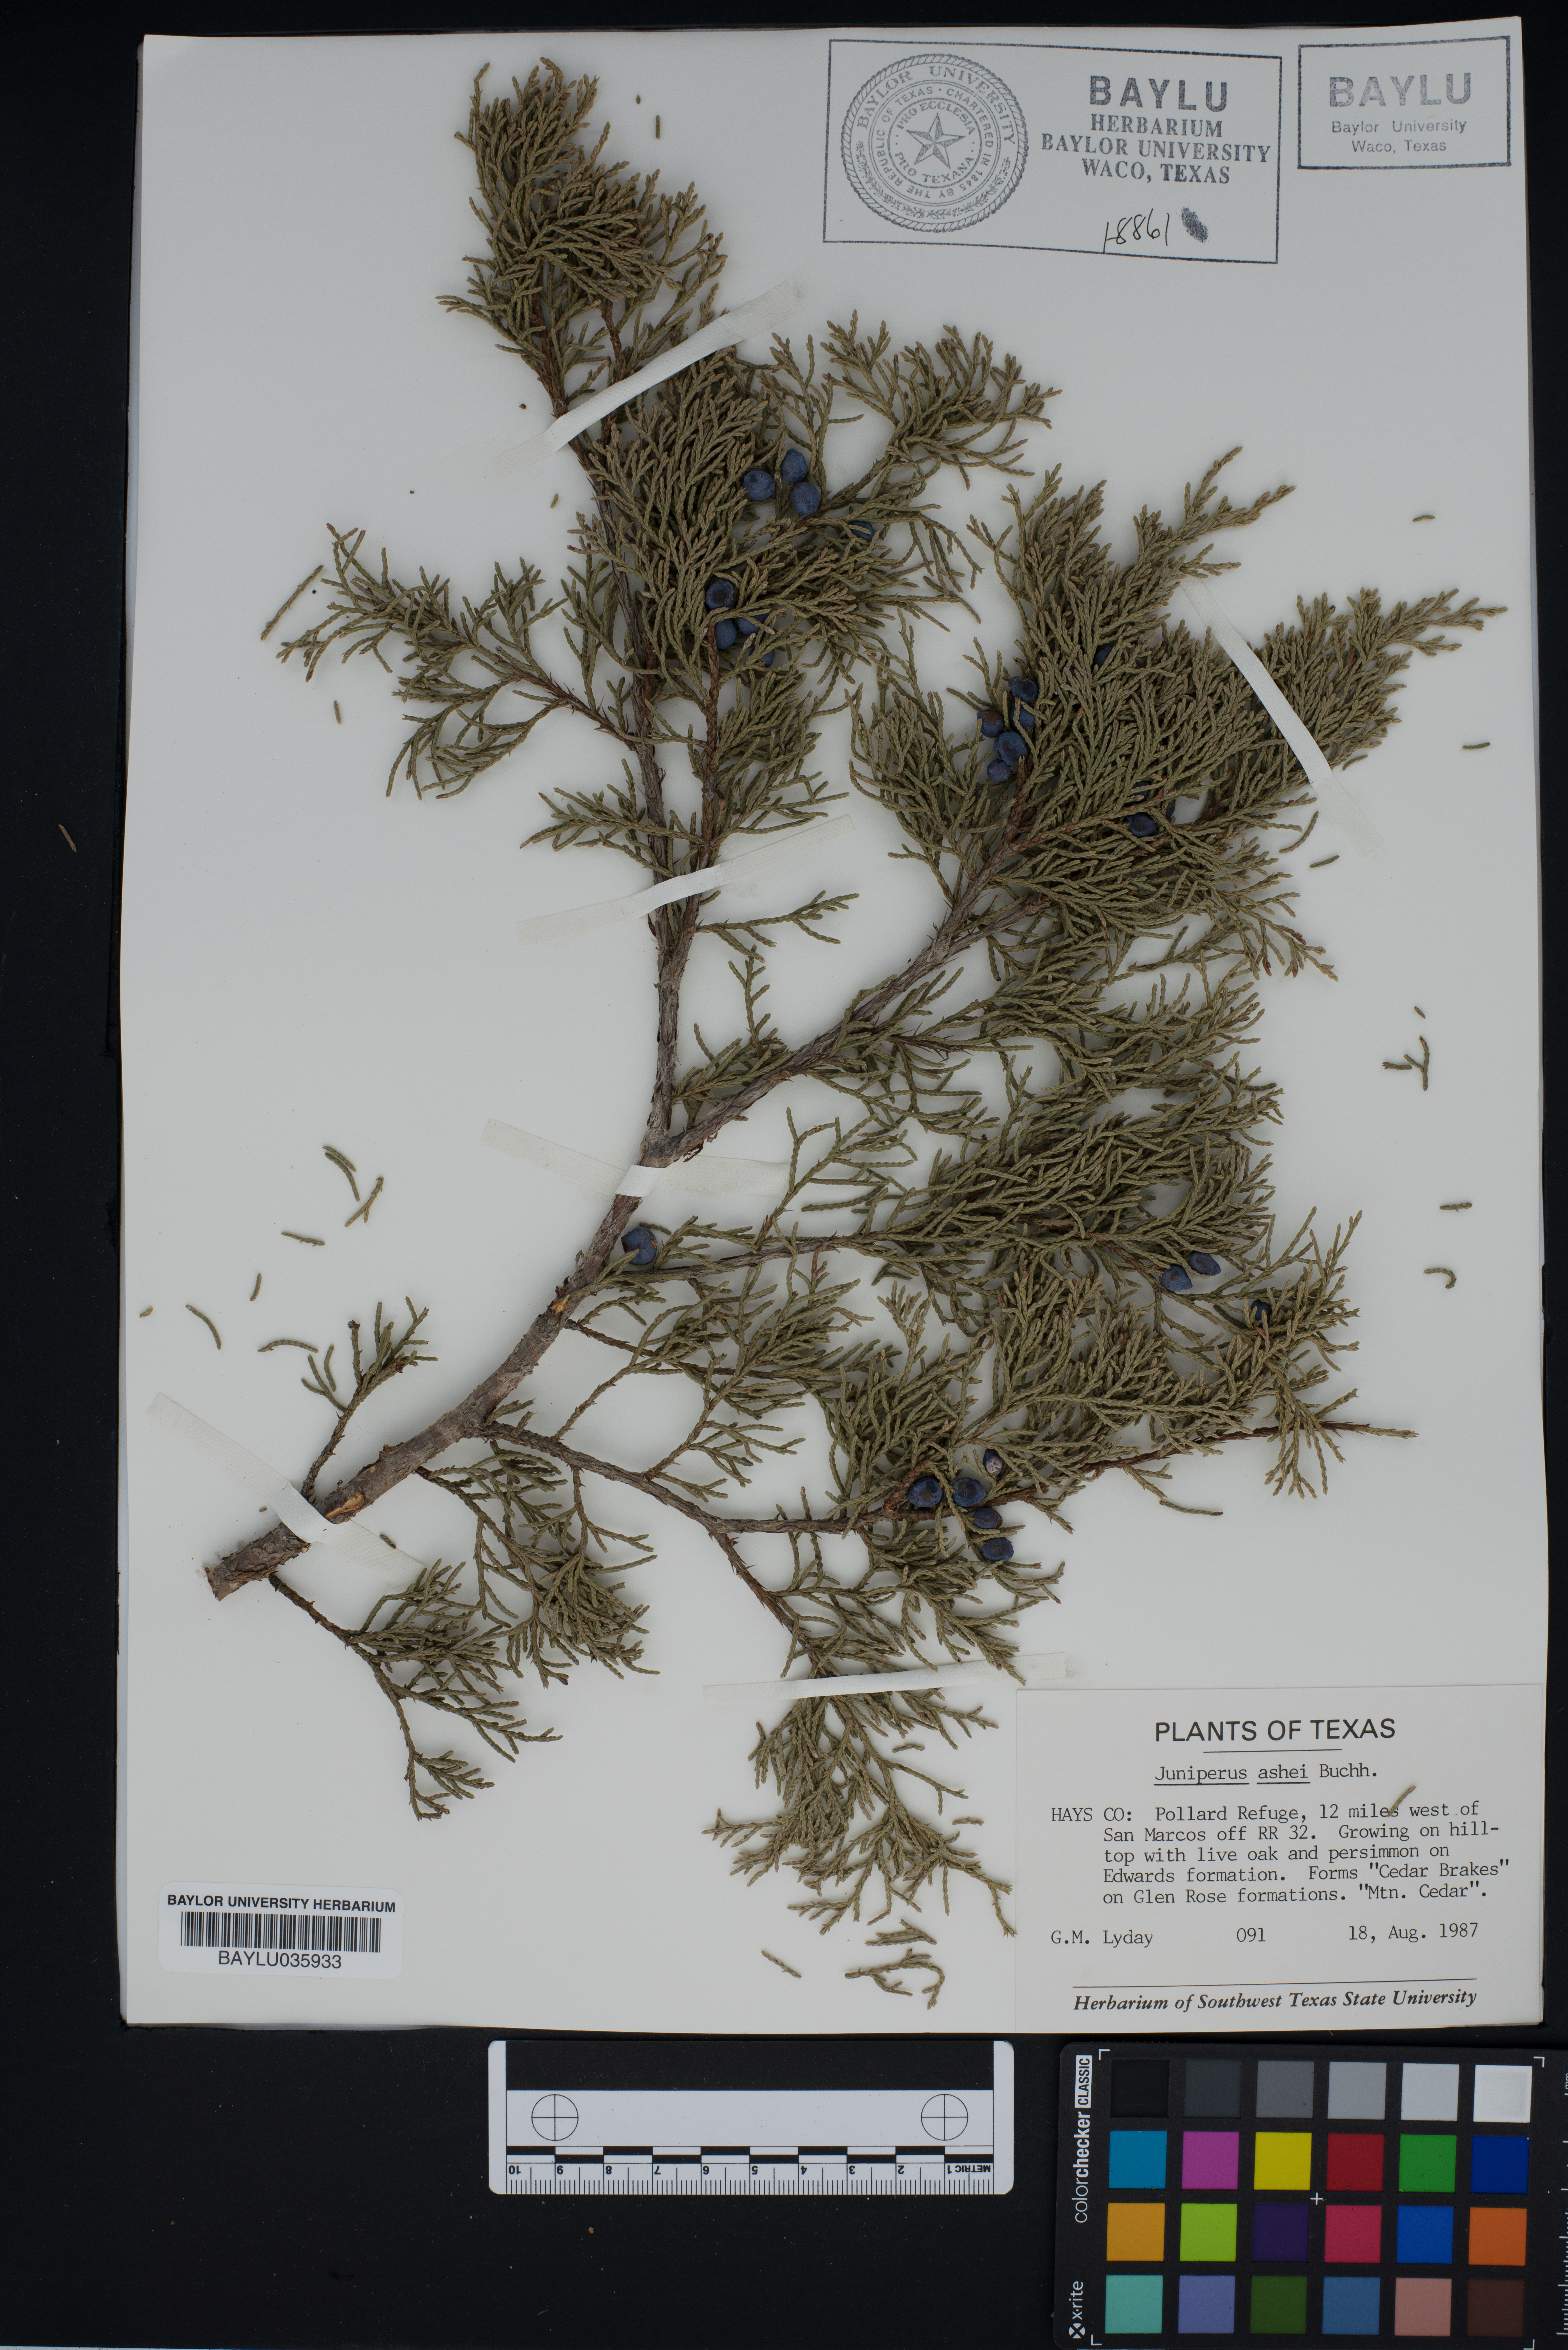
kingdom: Plantae
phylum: Tracheophyta
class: Pinopsida
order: Pinales
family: Cupressaceae
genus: Juniperus
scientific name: Juniperus ashei
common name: Mexican juniper
